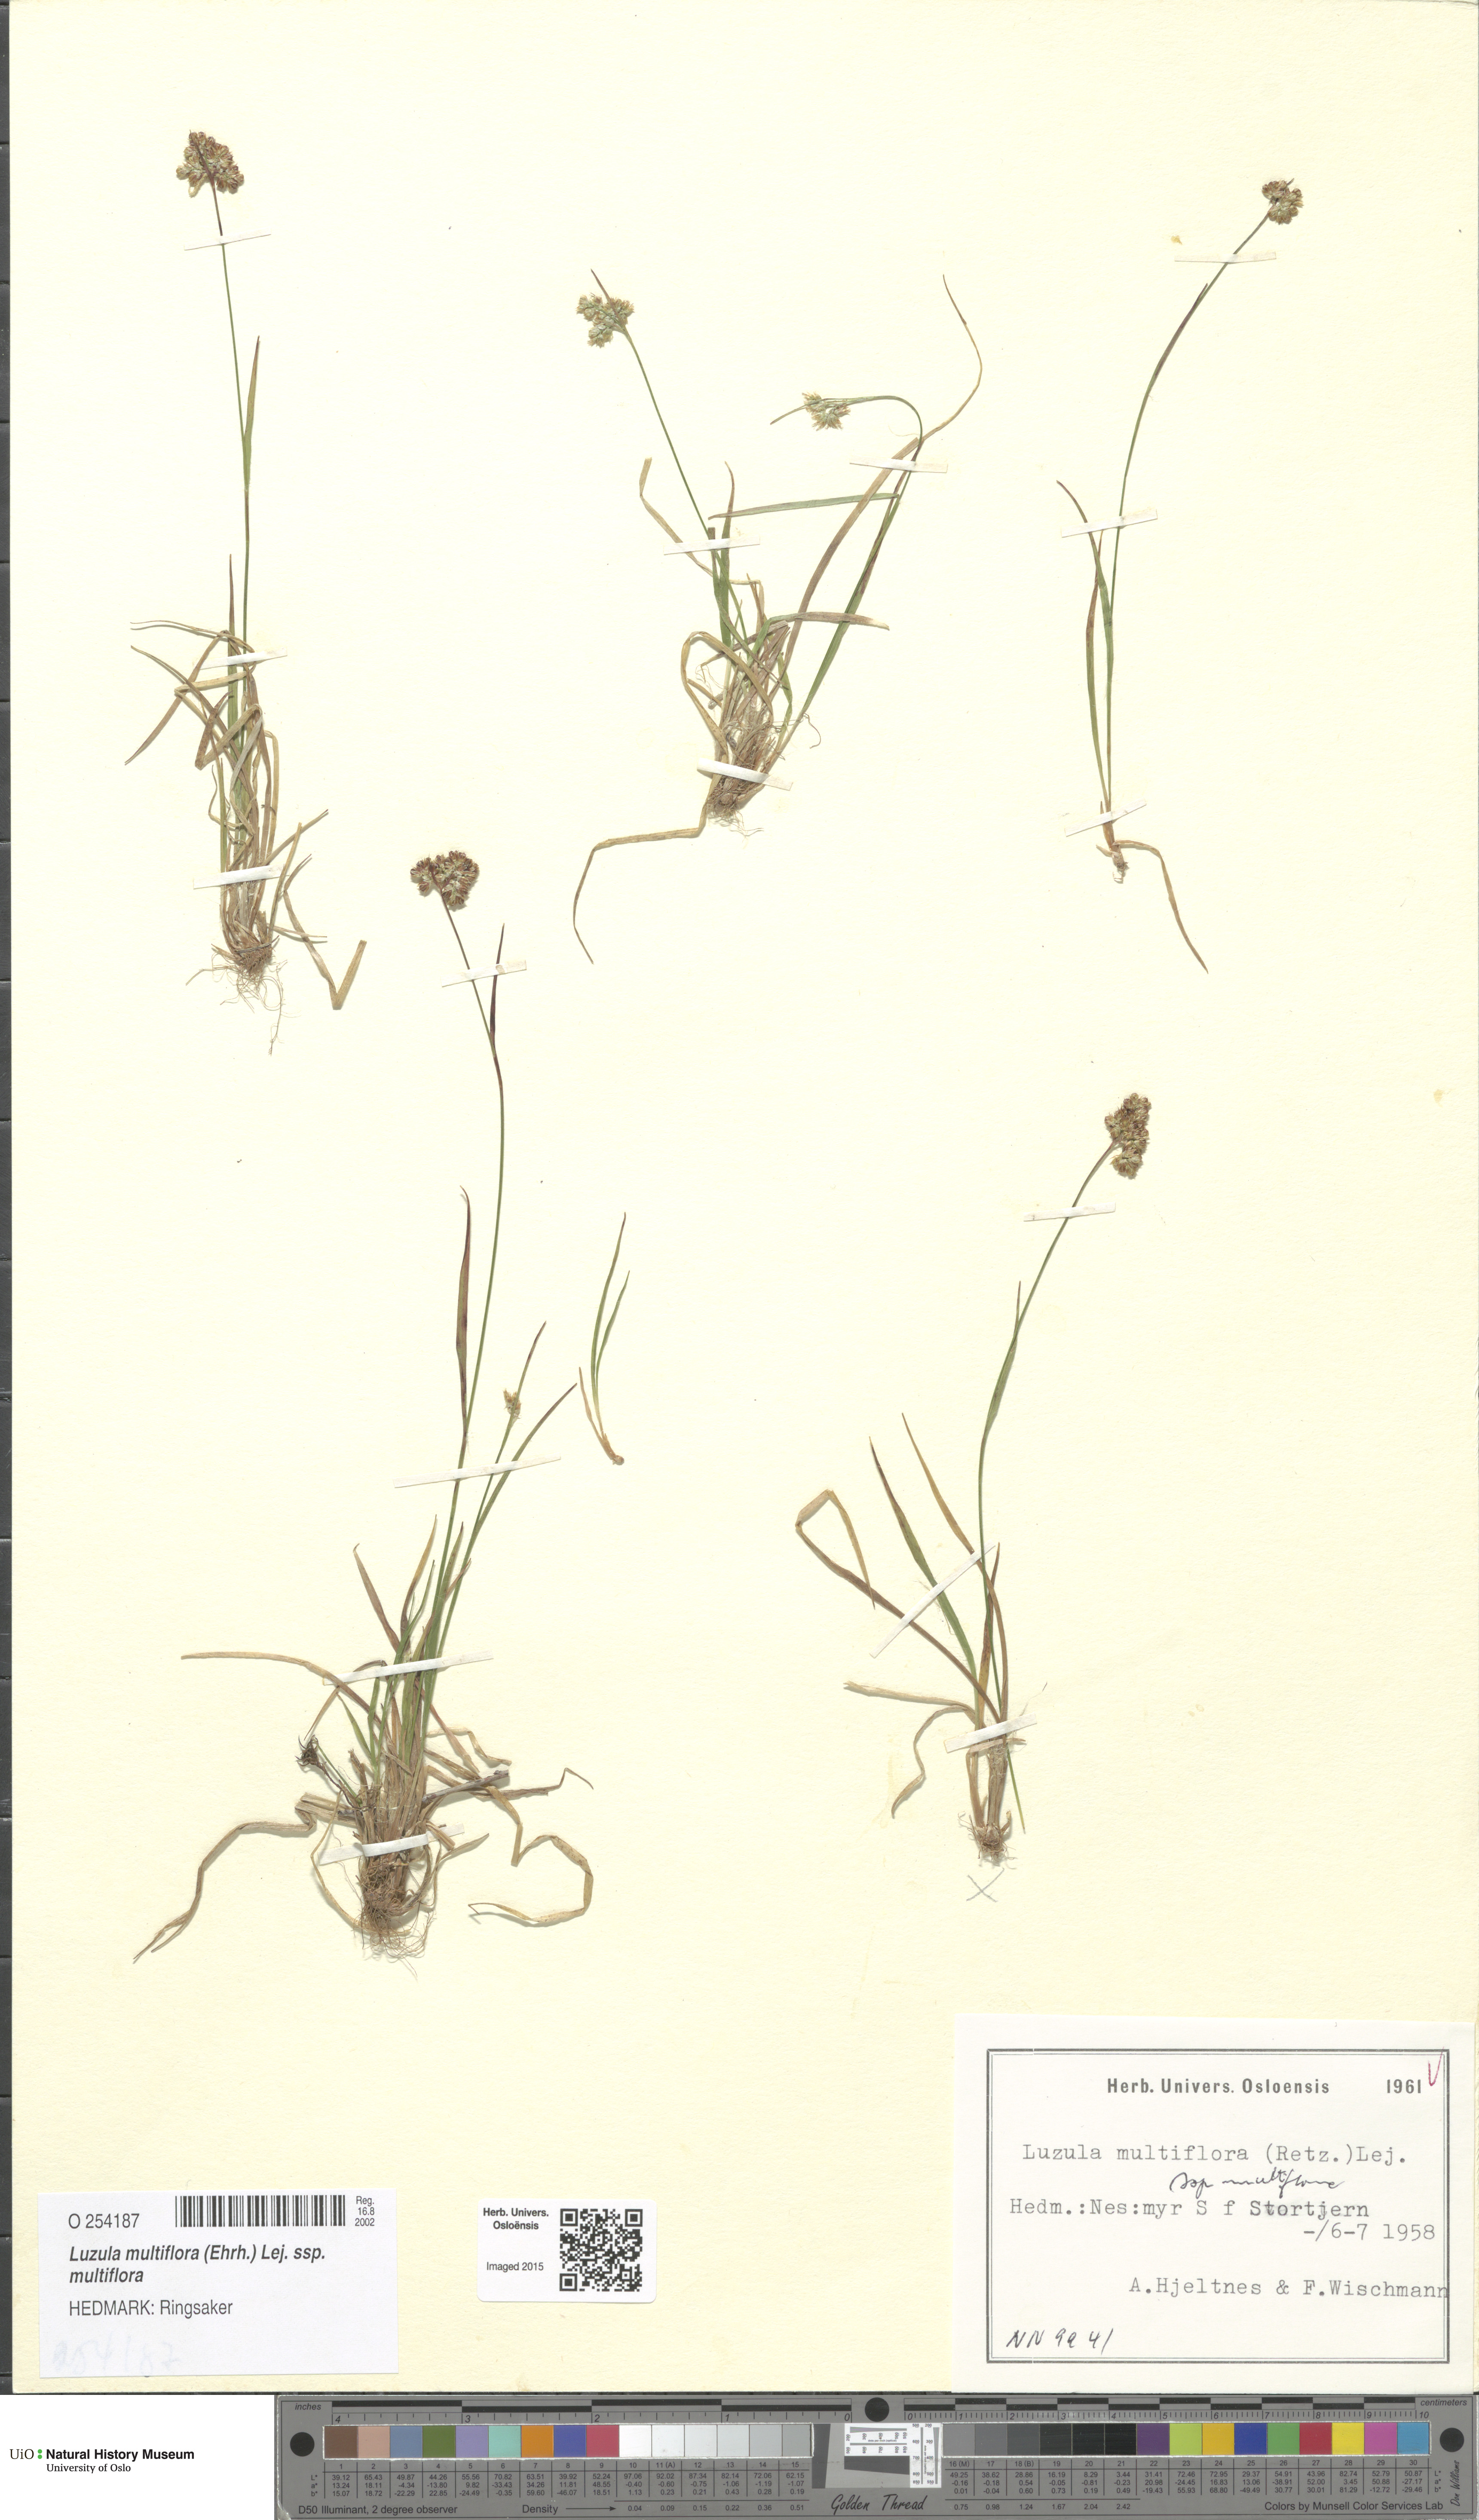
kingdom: Plantae
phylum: Tracheophyta
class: Liliopsida
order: Poales
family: Juncaceae
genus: Luzula
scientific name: Luzula multiflora
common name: Heath wood-rush
